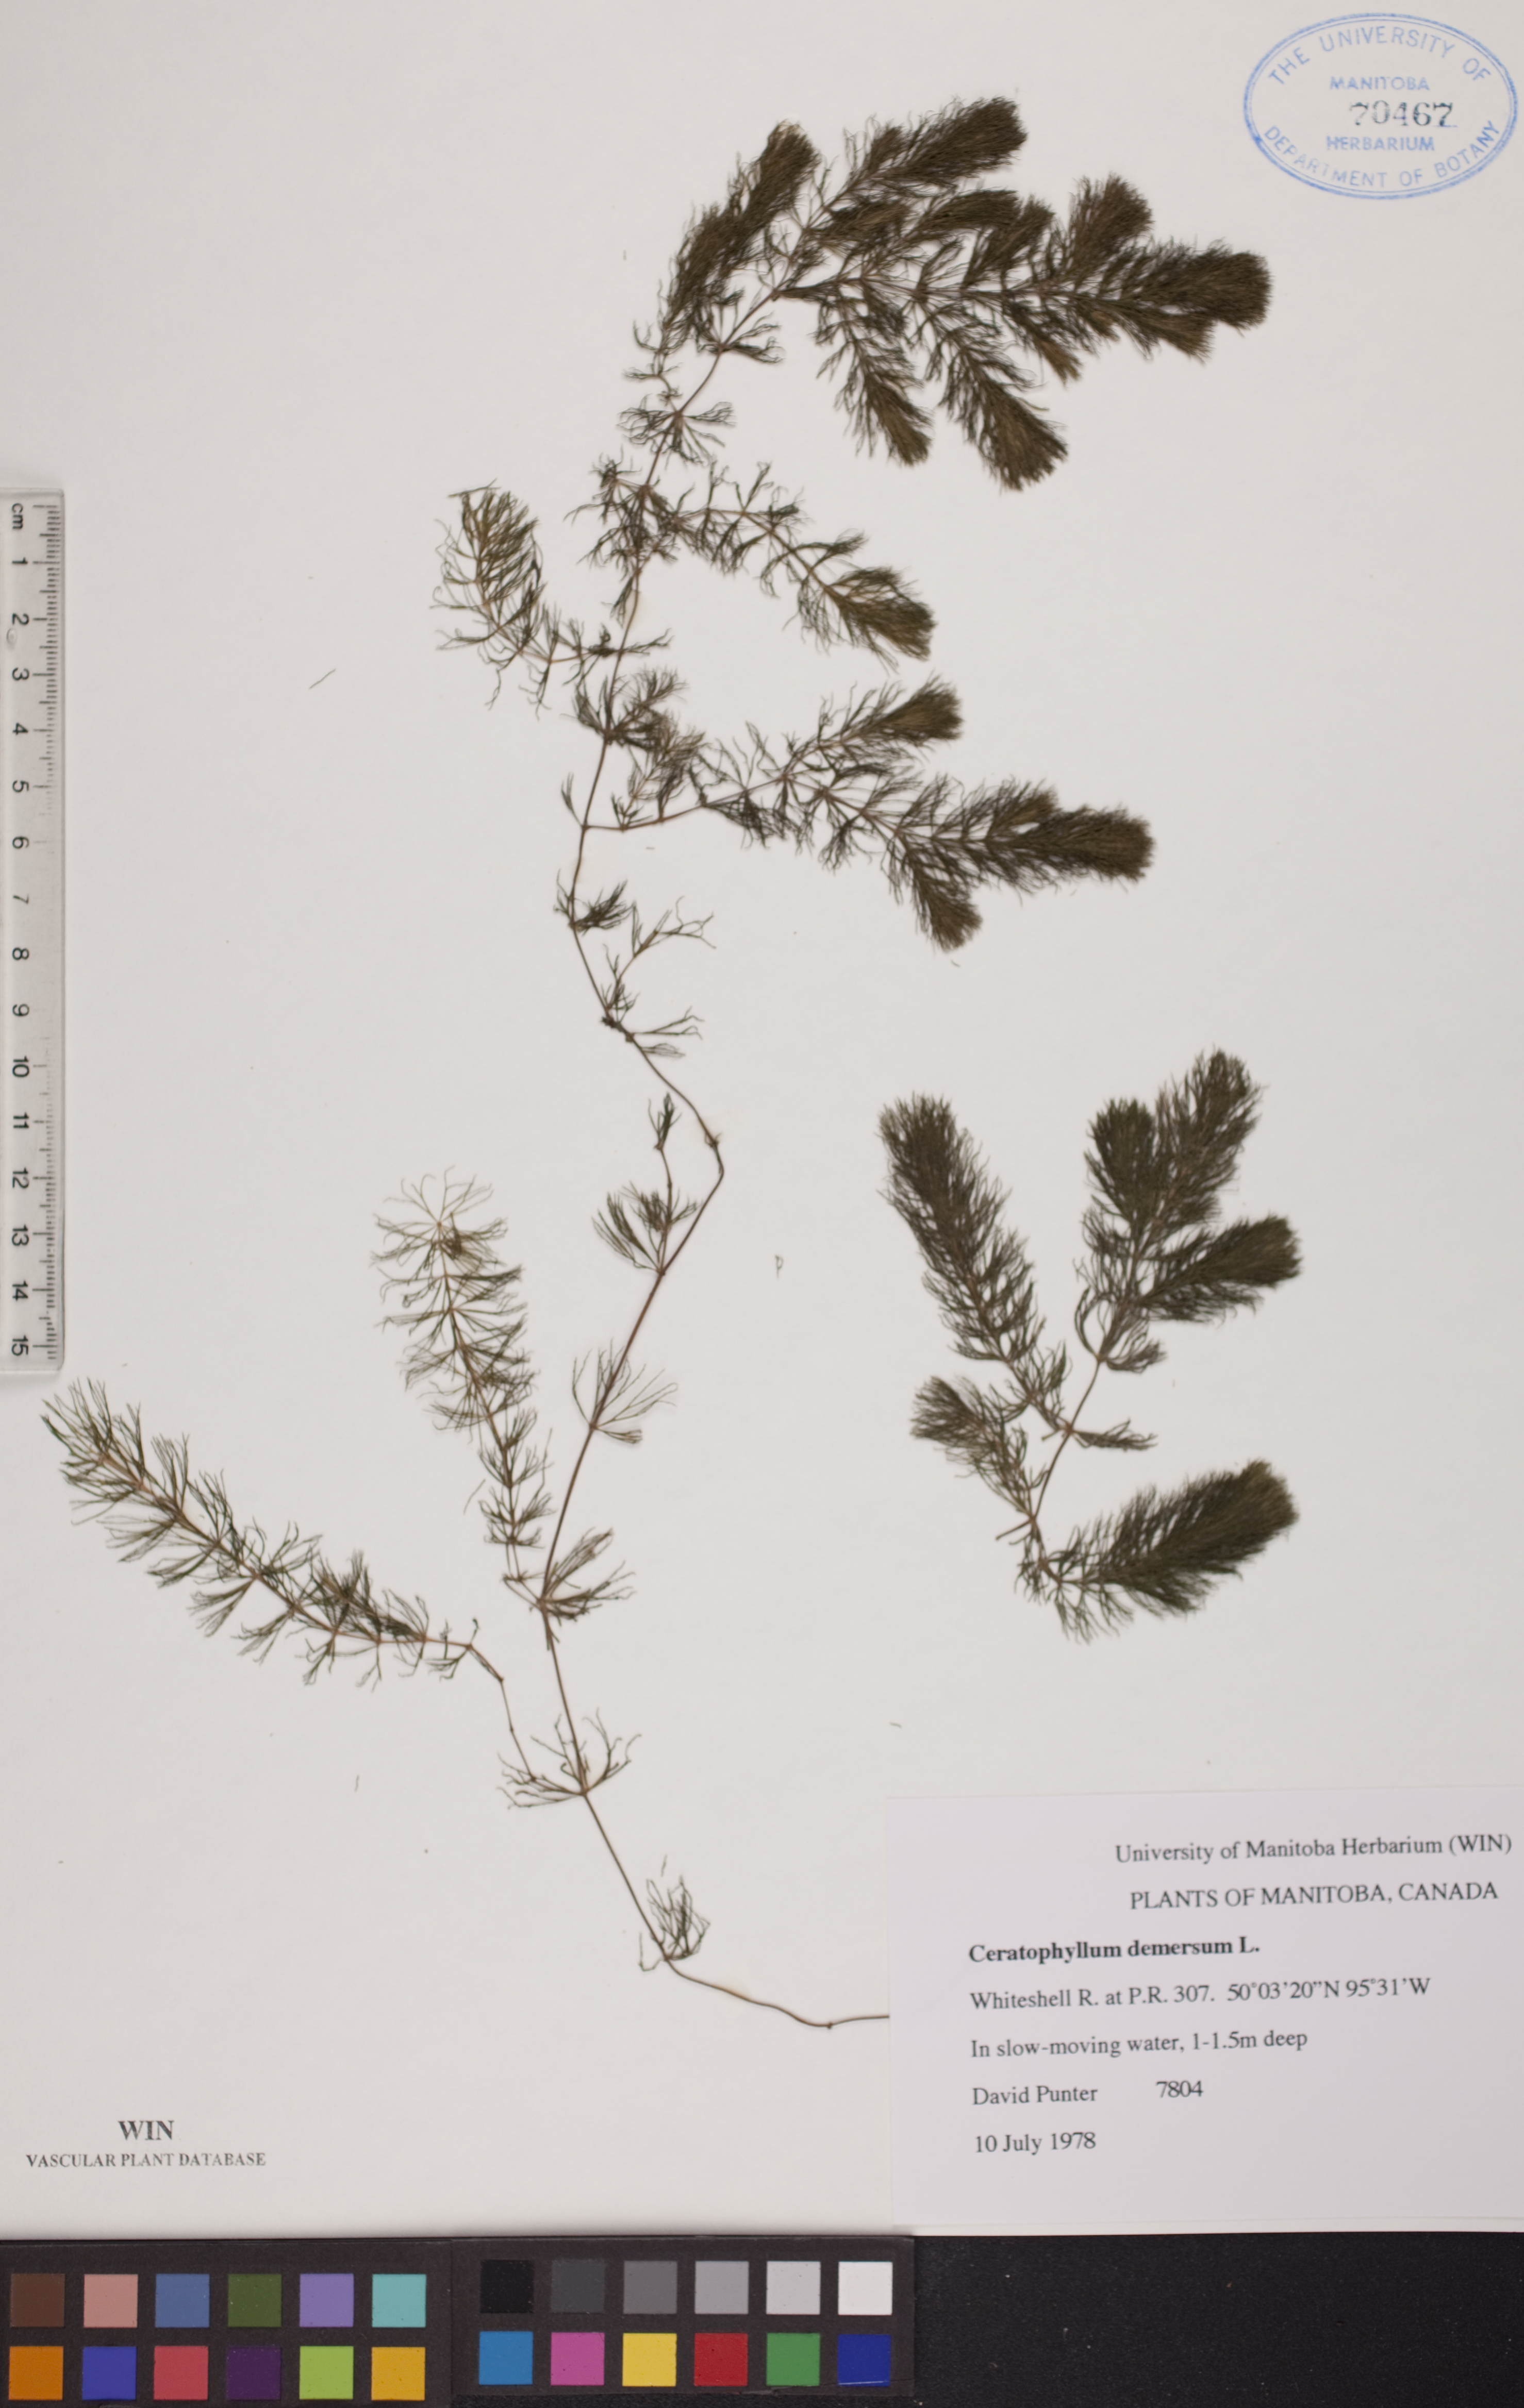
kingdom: Plantae
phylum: Tracheophyta
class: Magnoliopsida
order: Ceratophyllales
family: Ceratophyllaceae
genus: Ceratophyllum
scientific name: Ceratophyllum demersum
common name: Rigid hornwort
